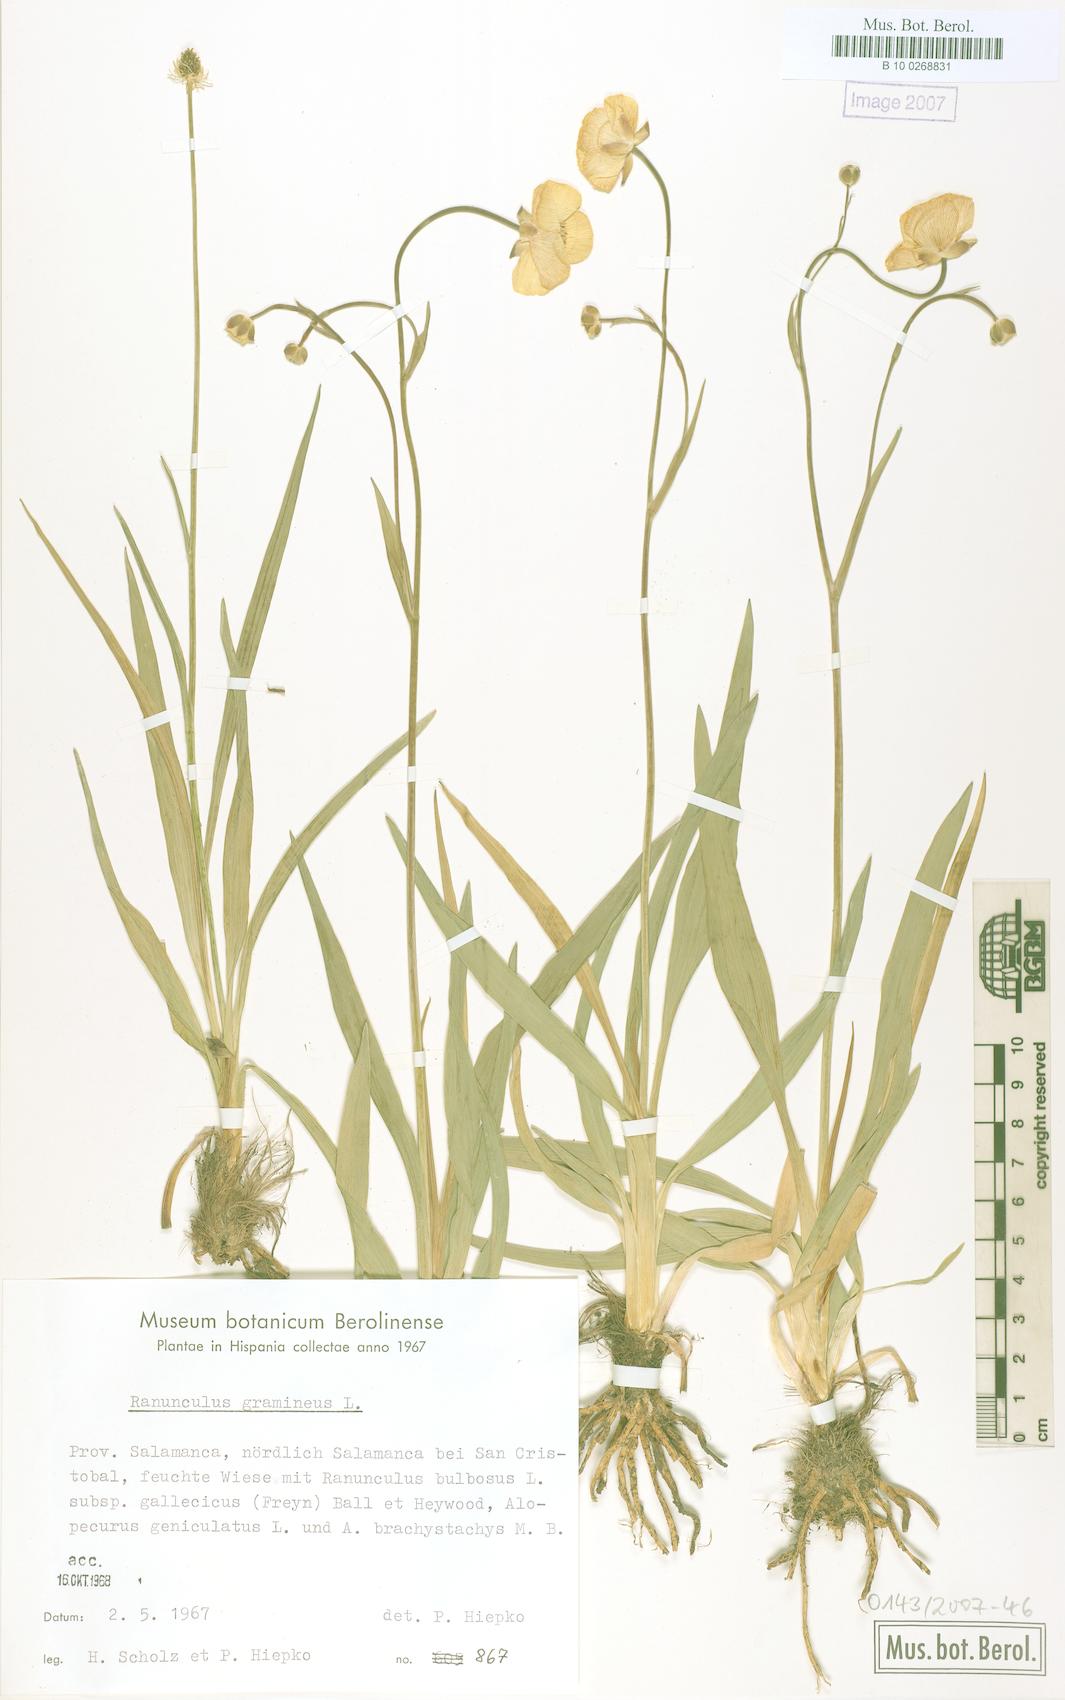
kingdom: Plantae
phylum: Tracheophyta
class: Magnoliopsida
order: Ranunculales
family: Ranunculaceae
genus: Ranunculus
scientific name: Ranunculus gramineus
